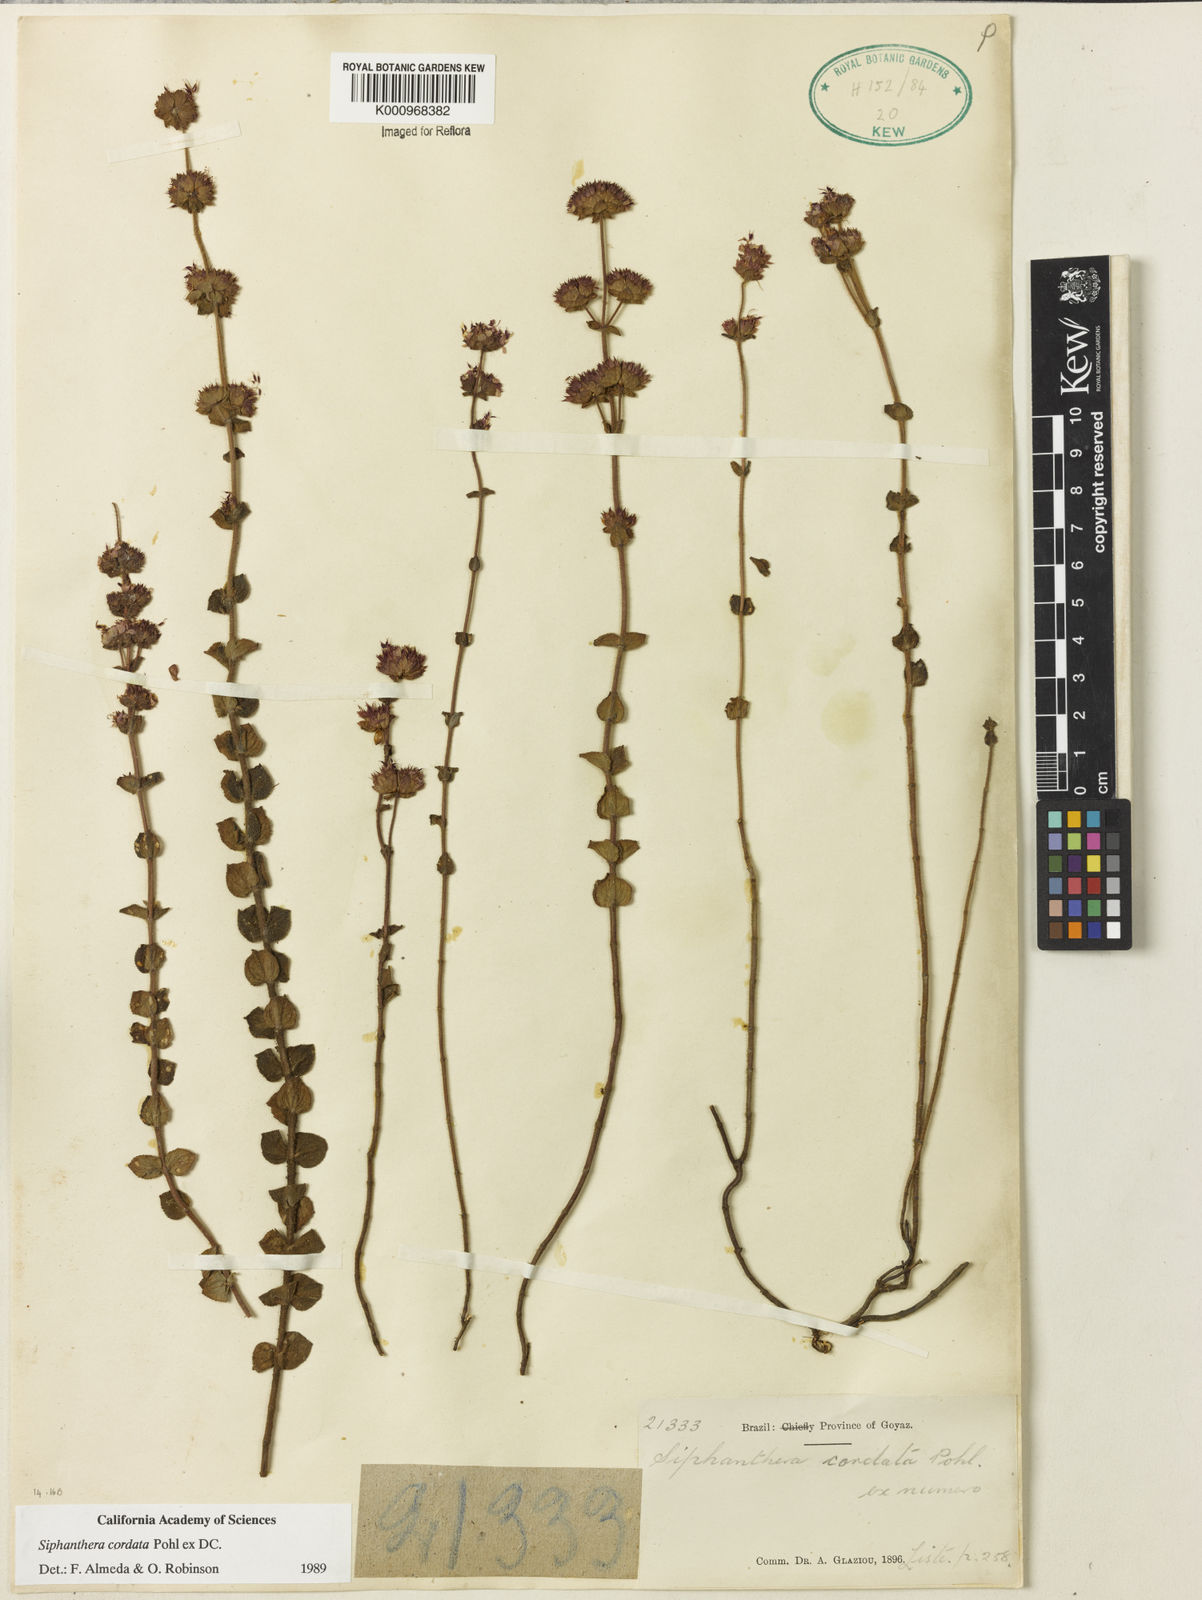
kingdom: Plantae
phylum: Tracheophyta
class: Magnoliopsida
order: Myrtales
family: Melastomataceae
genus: Siphanthera
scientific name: Siphanthera
